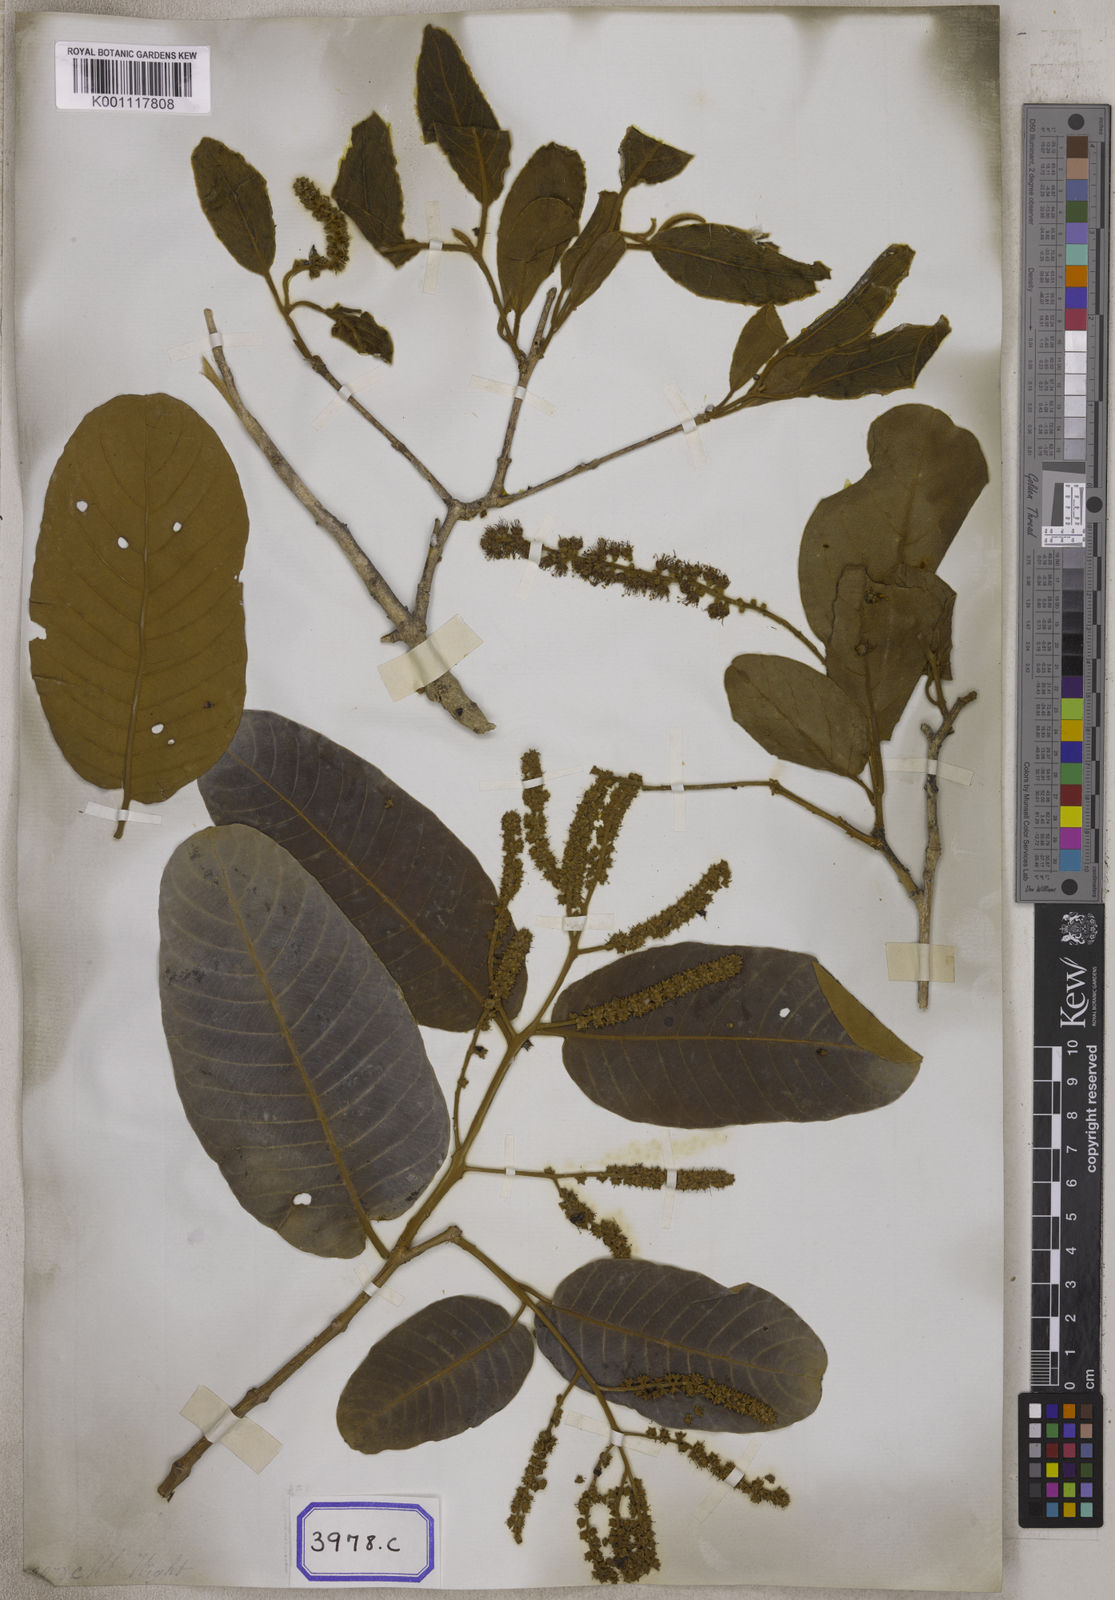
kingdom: Plantae
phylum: Tracheophyta
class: Magnoliopsida
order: Myrtales
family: Combretaceae
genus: Terminalia
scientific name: Terminalia
